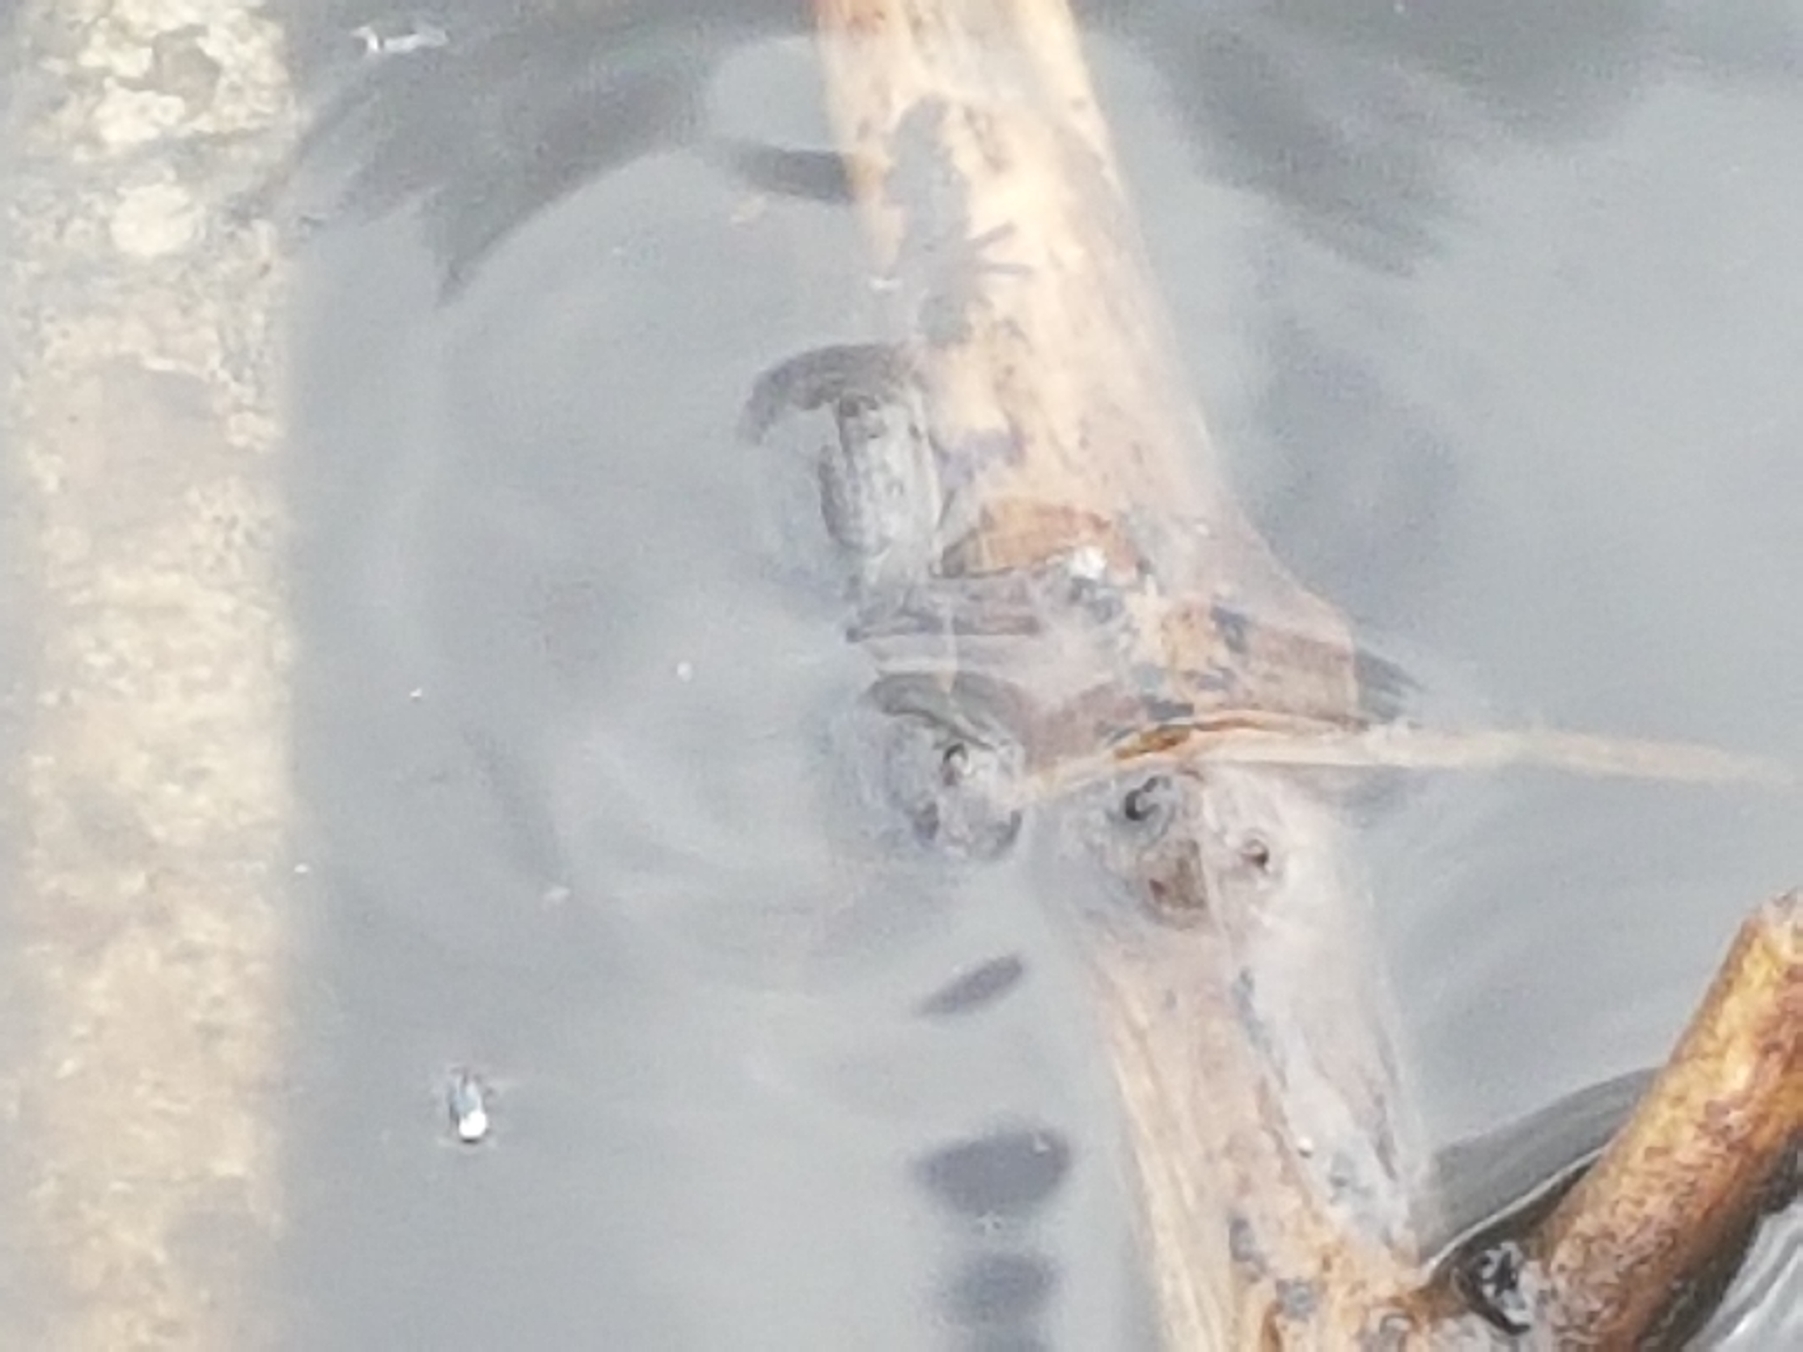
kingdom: Animalia
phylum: Chordata
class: Amphibia
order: Caudata
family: Salamandridae
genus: Lissotriton
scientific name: Lissotriton vulgaris
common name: Lille vandsalamander
